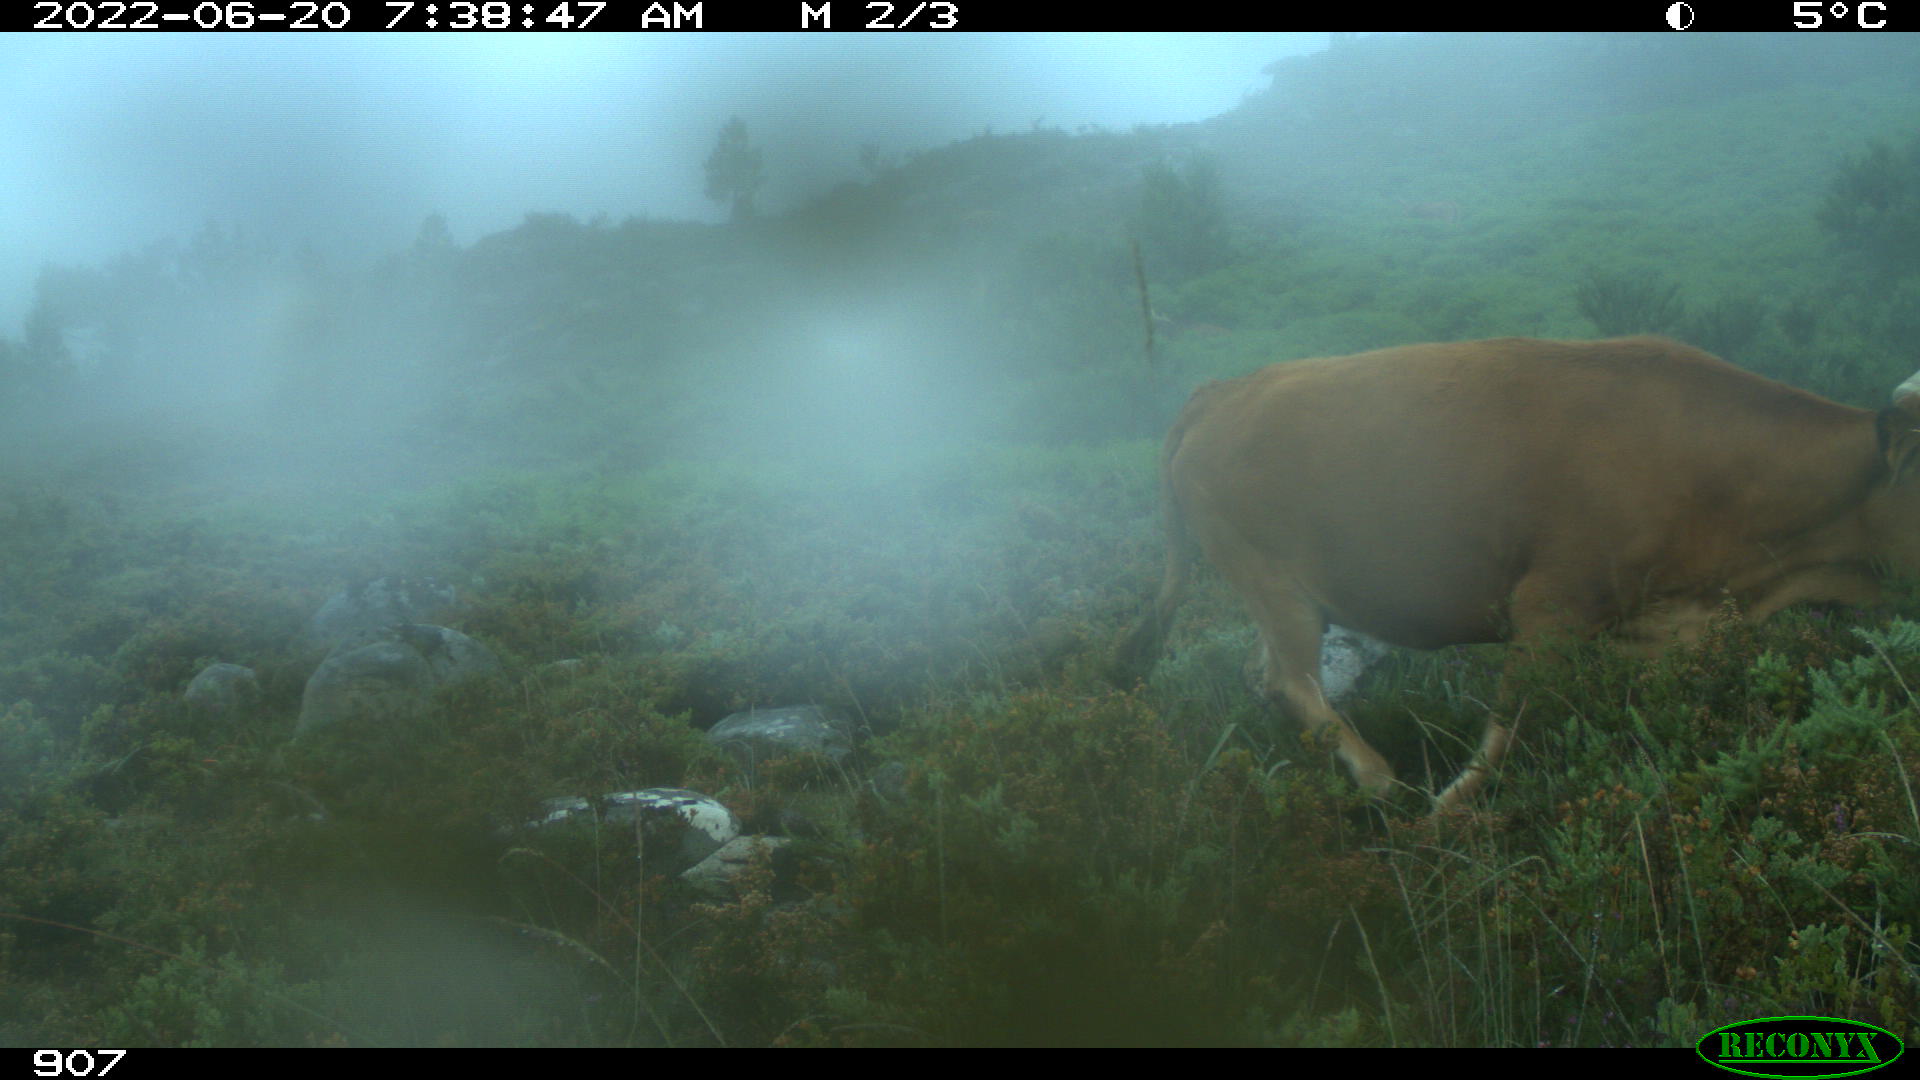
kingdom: Animalia
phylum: Chordata
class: Mammalia
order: Artiodactyla
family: Bovidae
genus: Bos
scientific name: Bos taurus
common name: Domesticated cattle
